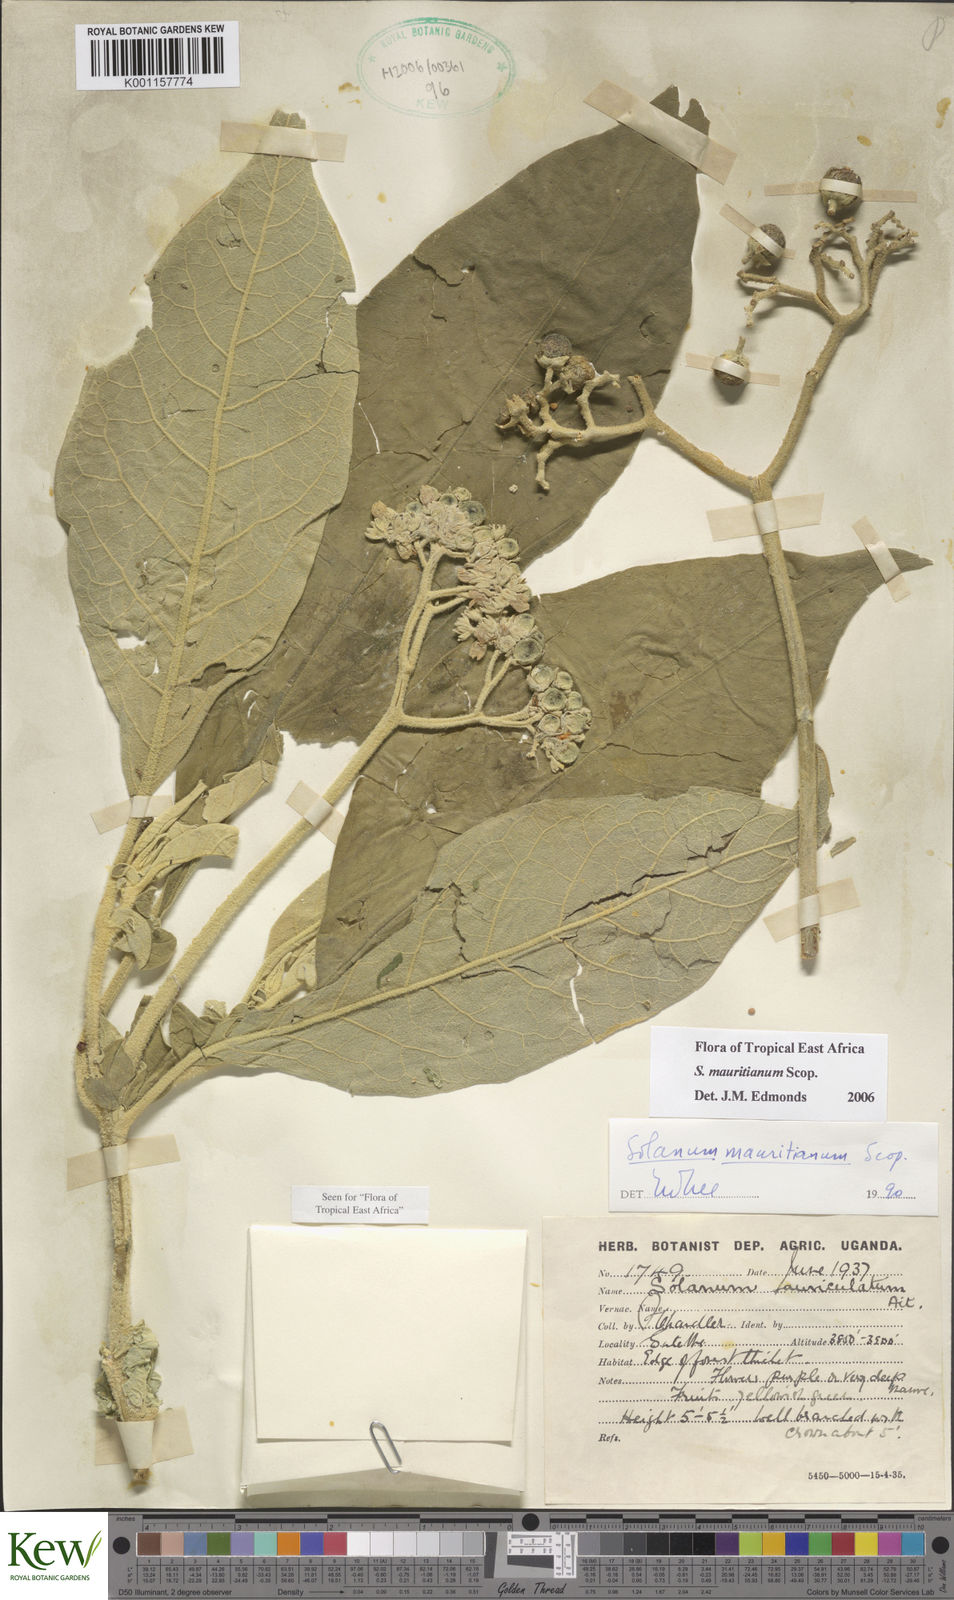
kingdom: Plantae
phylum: Tracheophyta
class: Magnoliopsida
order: Solanales
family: Solanaceae
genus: Solanum
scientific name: Solanum mauritianum
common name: Earleaf nightshade
